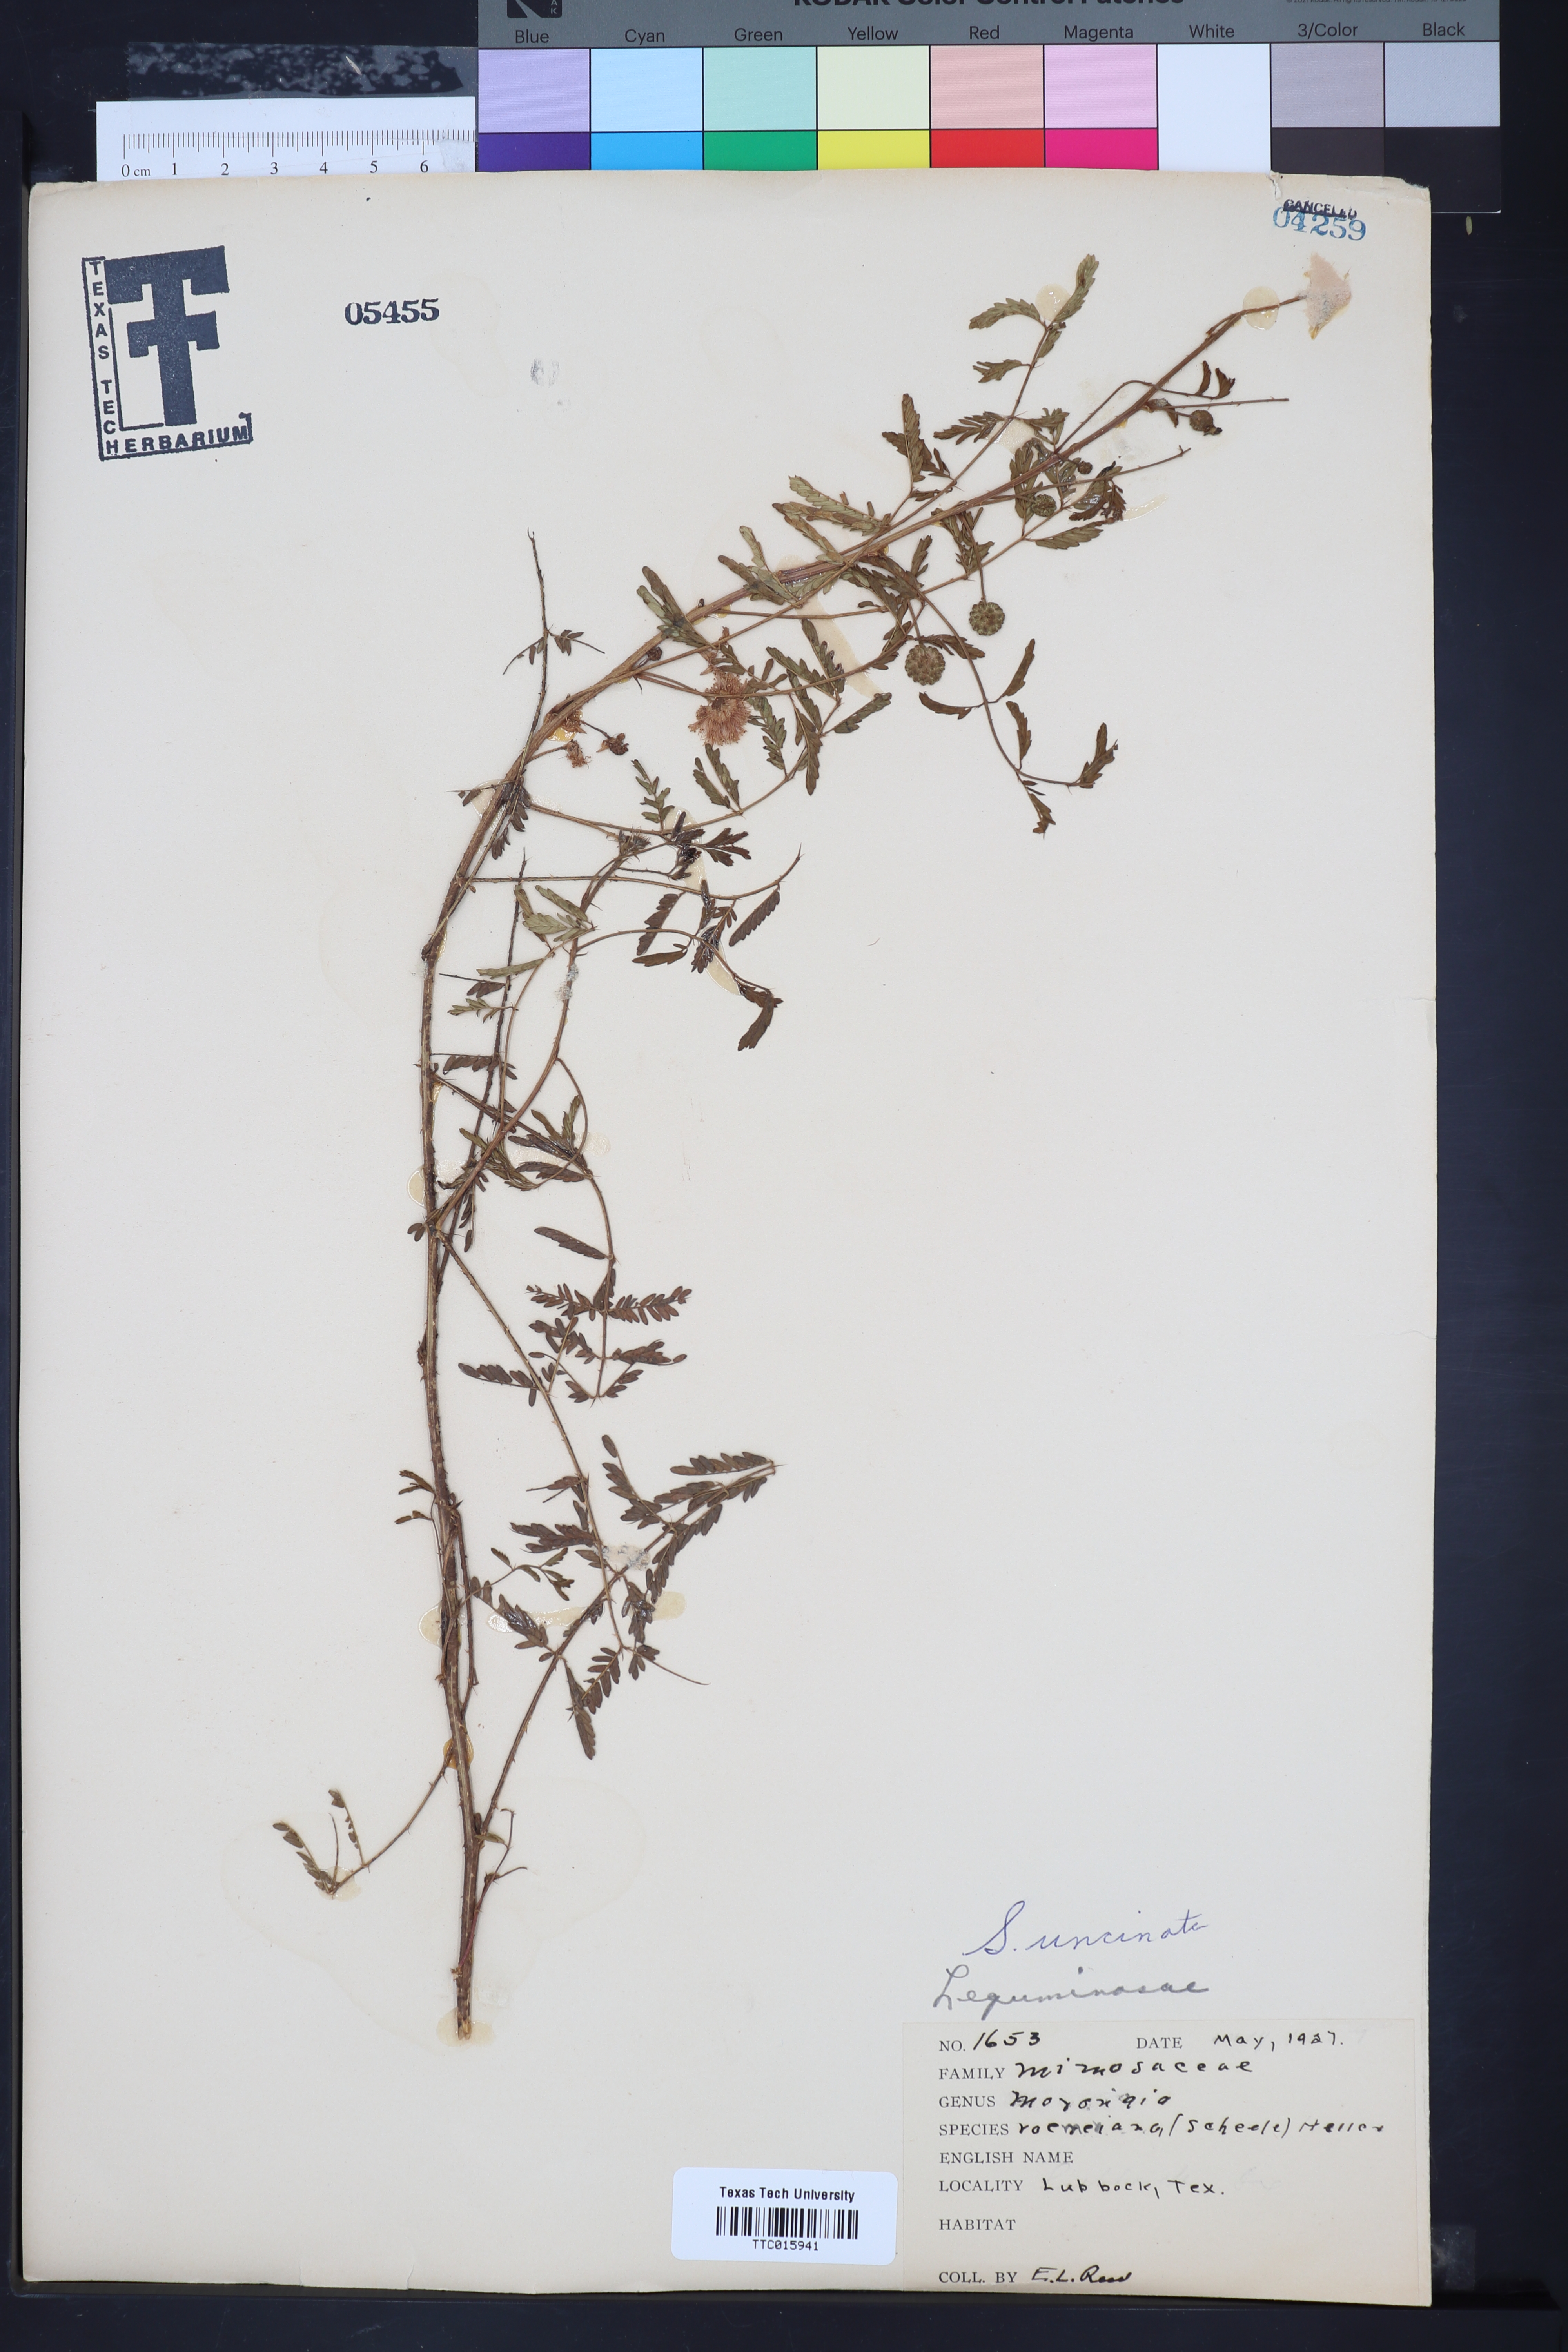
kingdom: Plantae
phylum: Tracheophyta
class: Magnoliopsida
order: Fabales
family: Fabaceae
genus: Mimosa
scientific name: Mimosa quadrivalvis
